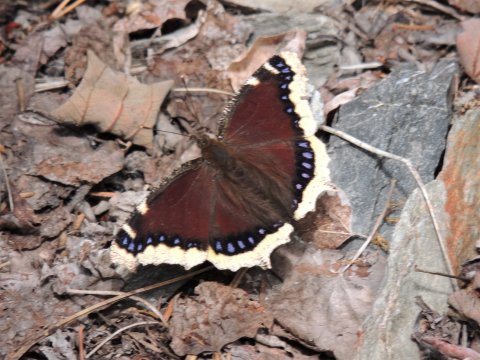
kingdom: Animalia
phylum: Arthropoda
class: Insecta
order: Lepidoptera
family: Nymphalidae
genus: Nymphalis
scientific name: Nymphalis antiopa
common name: Mourning Cloak
